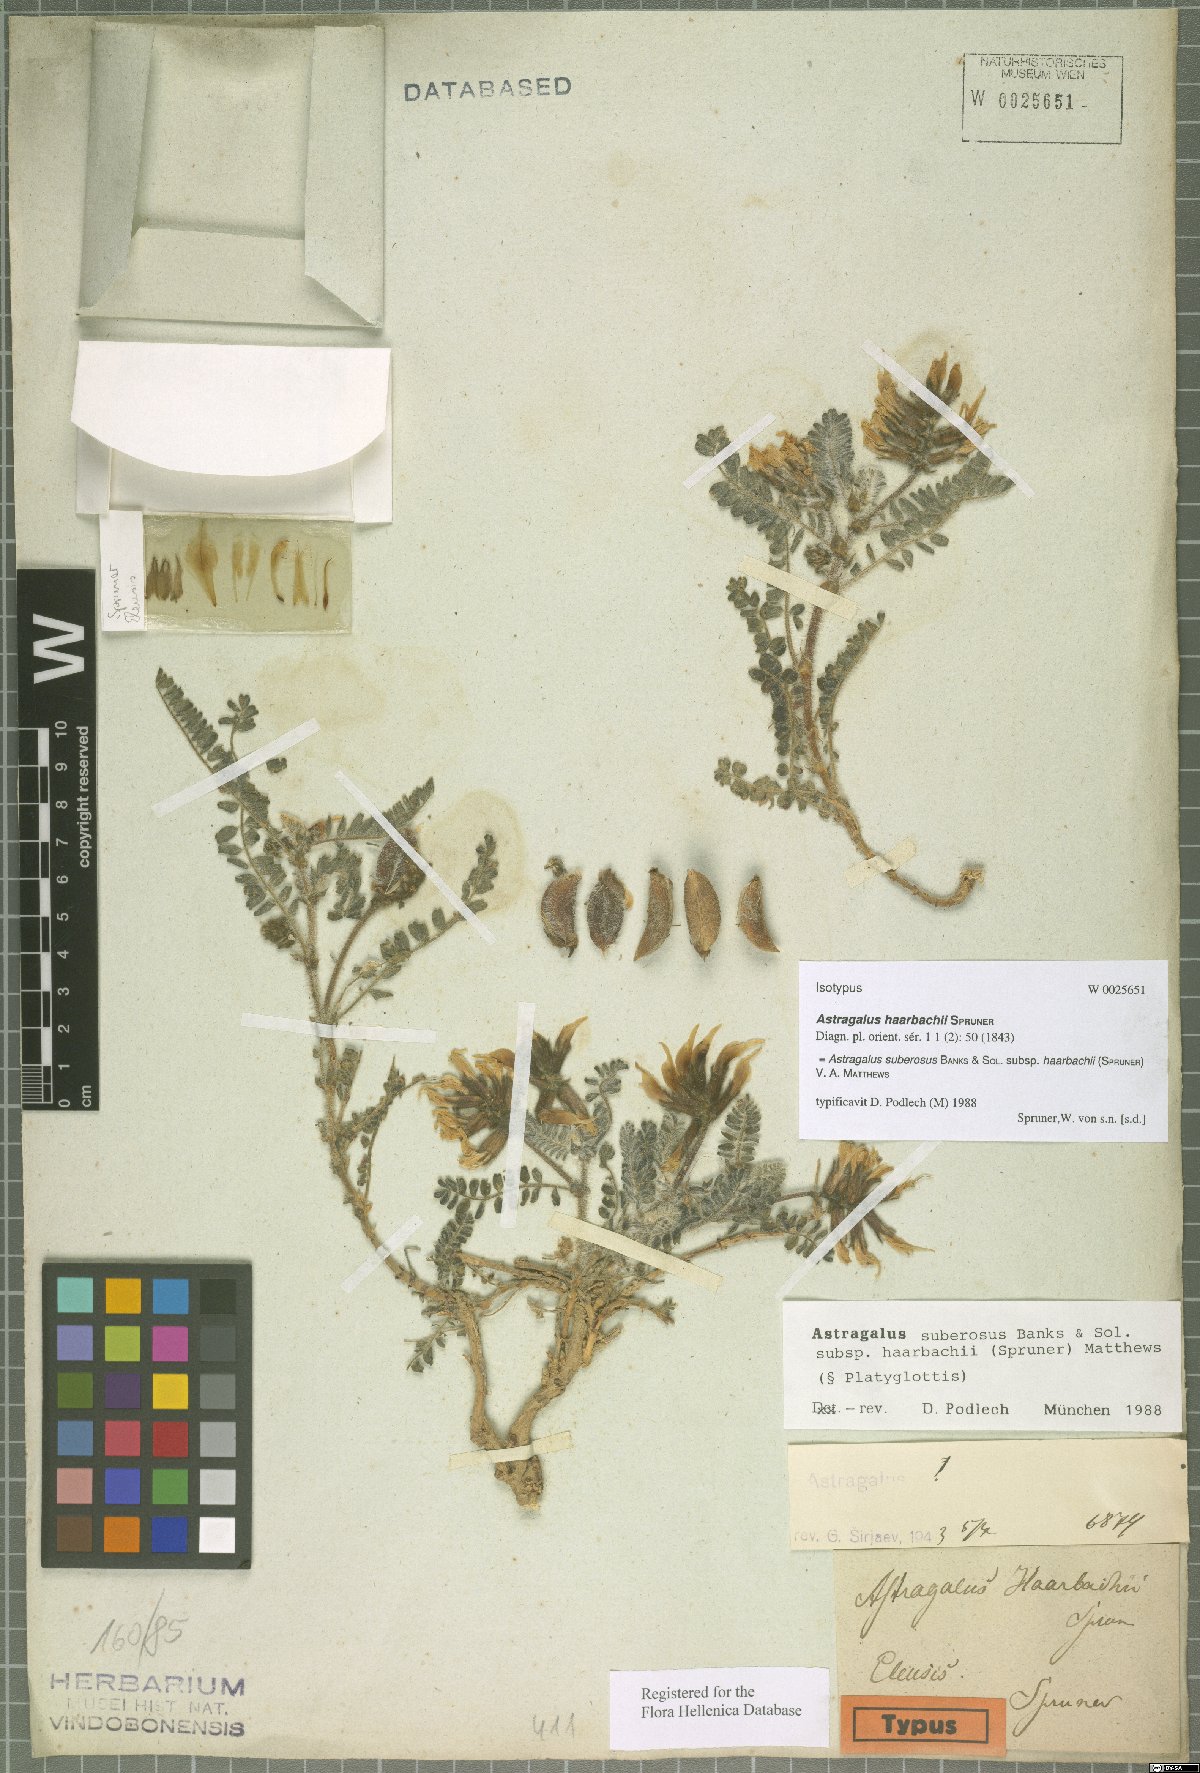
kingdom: Plantae
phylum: Tracheophyta
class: Magnoliopsida
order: Fabales
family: Fabaceae
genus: Astragalus
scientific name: Astragalus suberosus
